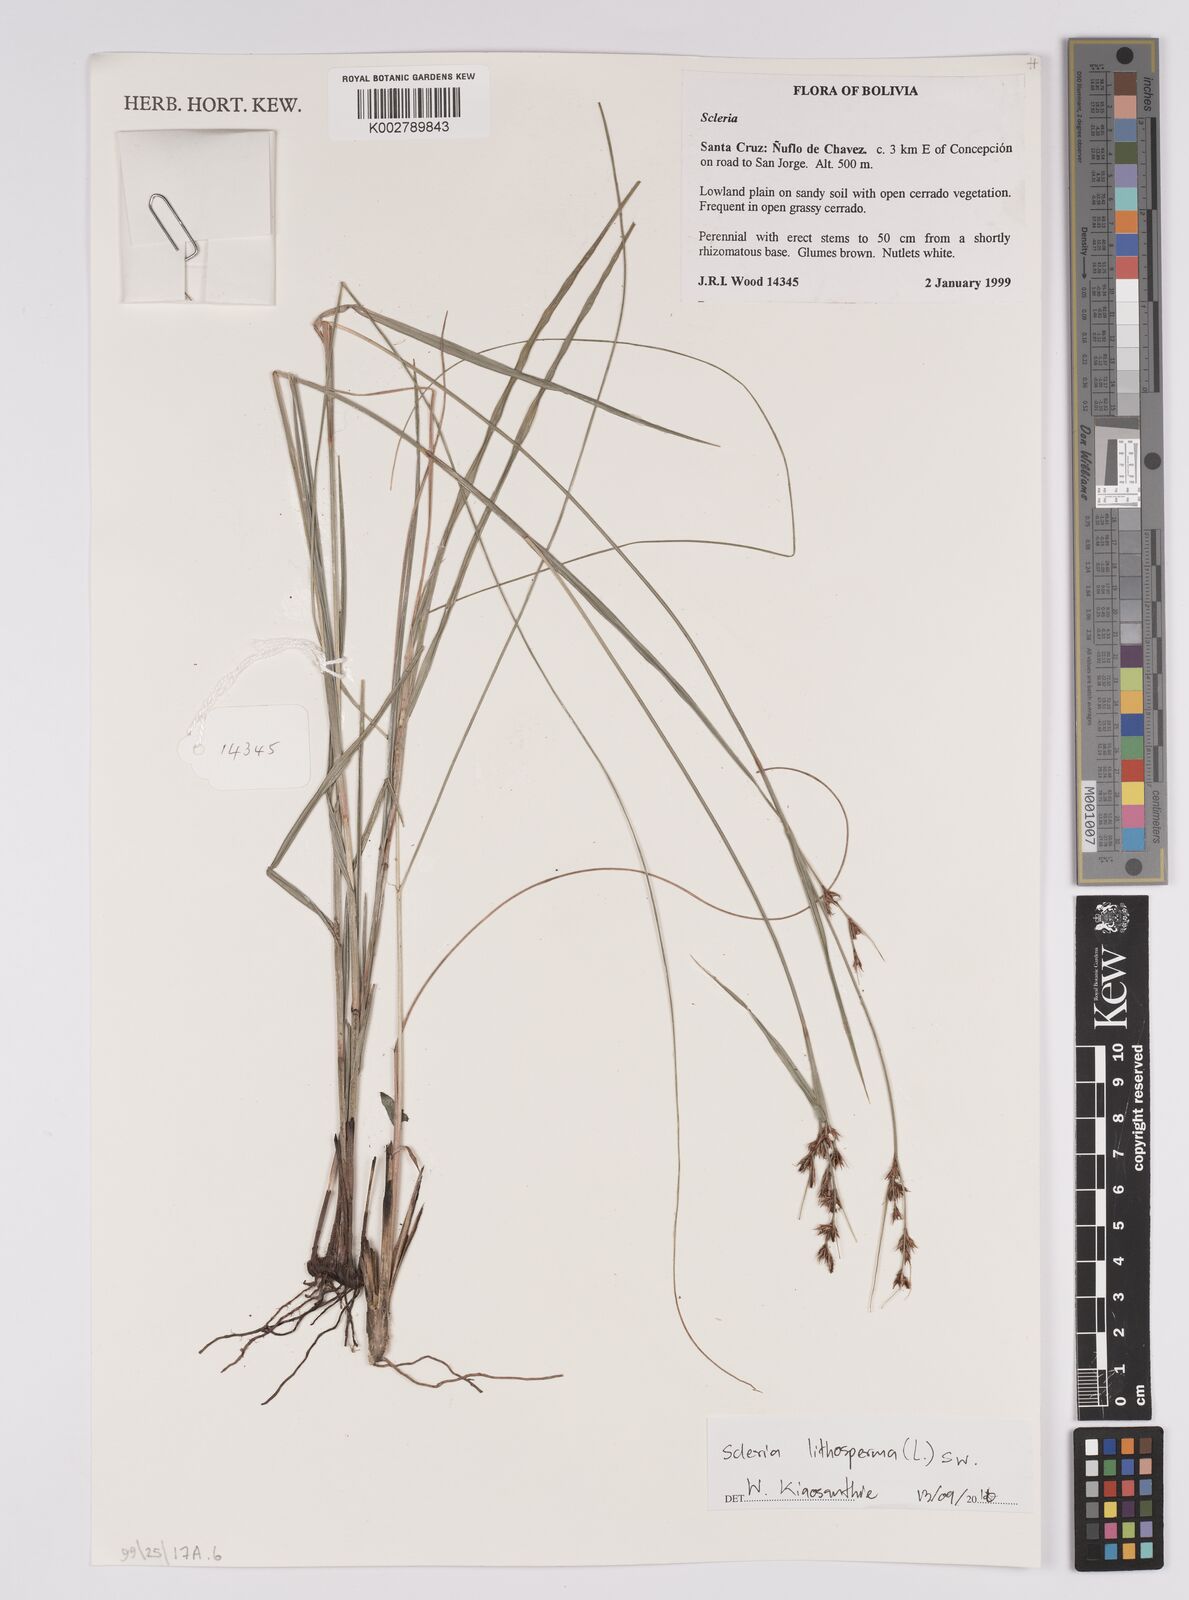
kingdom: Plantae
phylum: Tracheophyta
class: Liliopsida
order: Poales
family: Cyperaceae
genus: Scleria
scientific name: Scleria lithosperma
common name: Florida keys nut-rush
